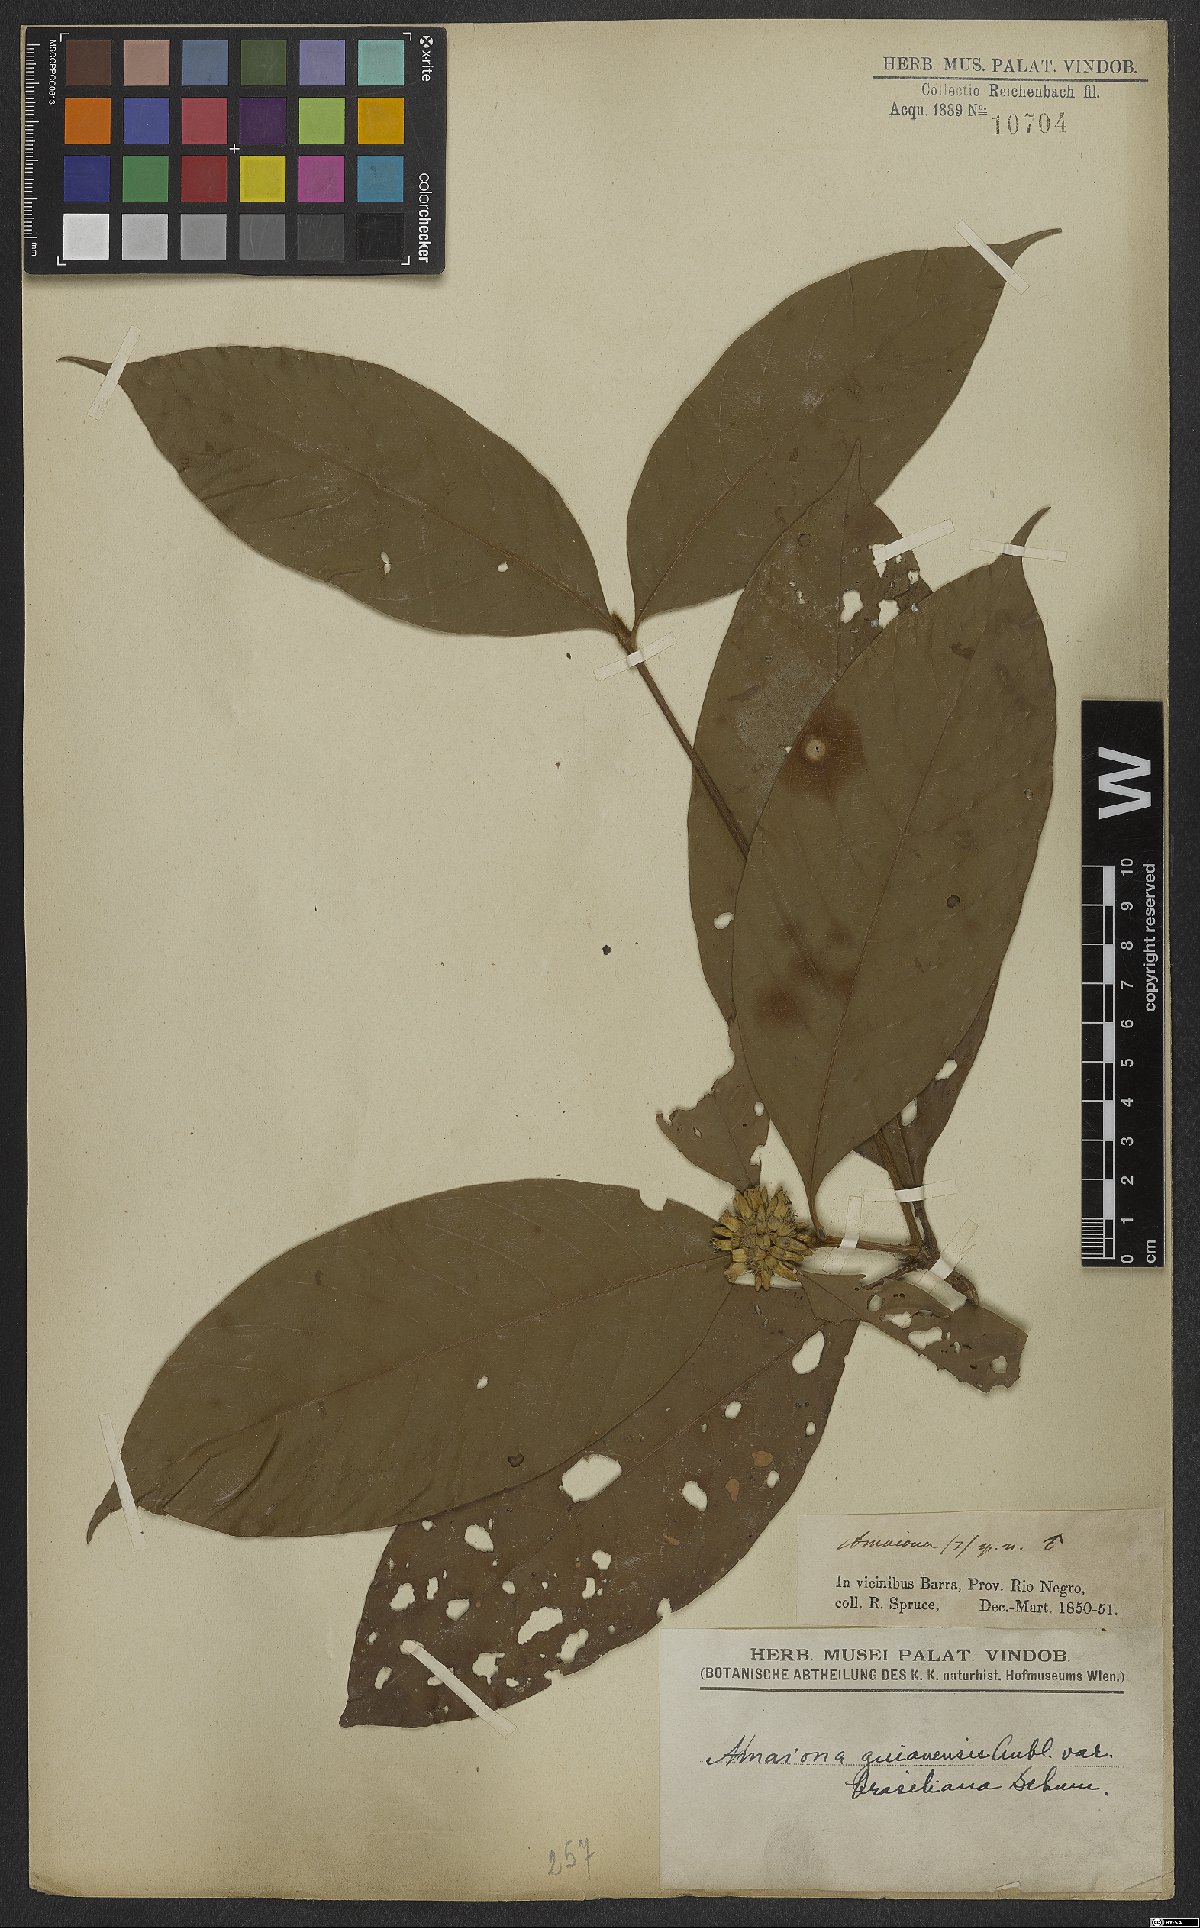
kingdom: Plantae
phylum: Tracheophyta
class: Magnoliopsida
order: Gentianales
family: Rubiaceae
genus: Amaioua
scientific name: Amaioua guianensis
